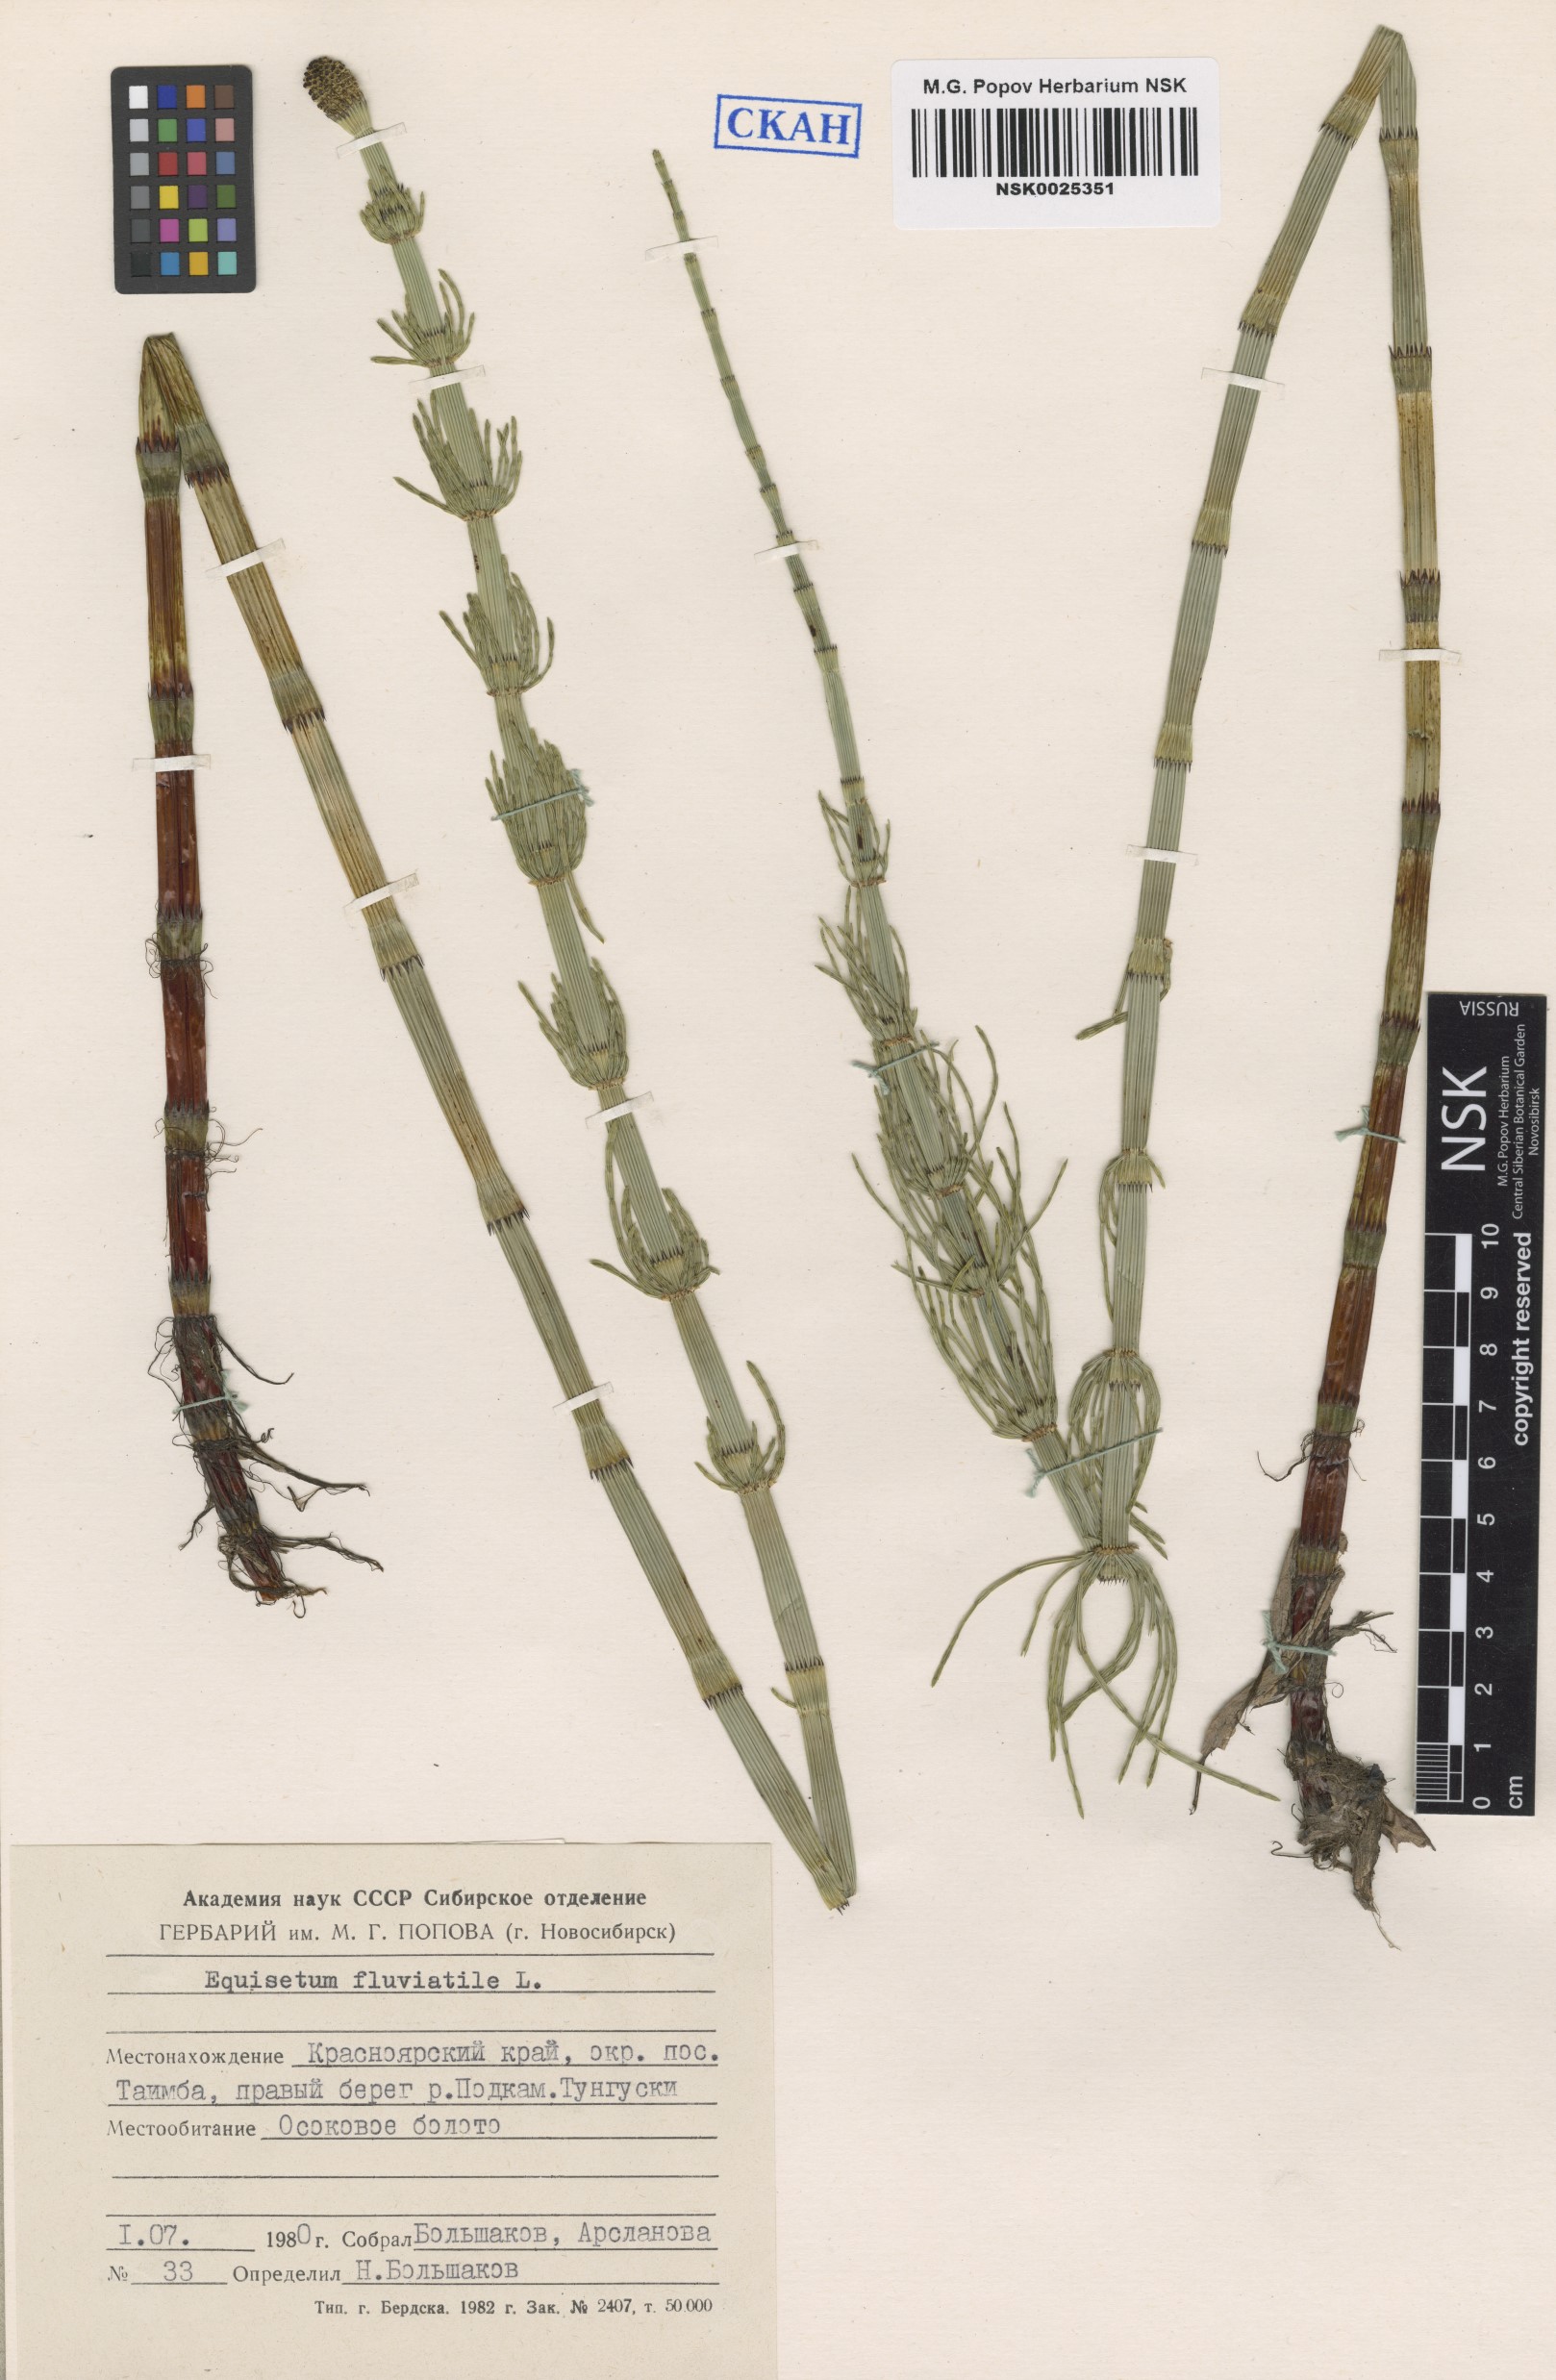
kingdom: Plantae
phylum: Tracheophyta
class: Polypodiopsida
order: Equisetales
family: Equisetaceae
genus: Equisetum
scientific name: Equisetum fluviatile
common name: Water horsetail
